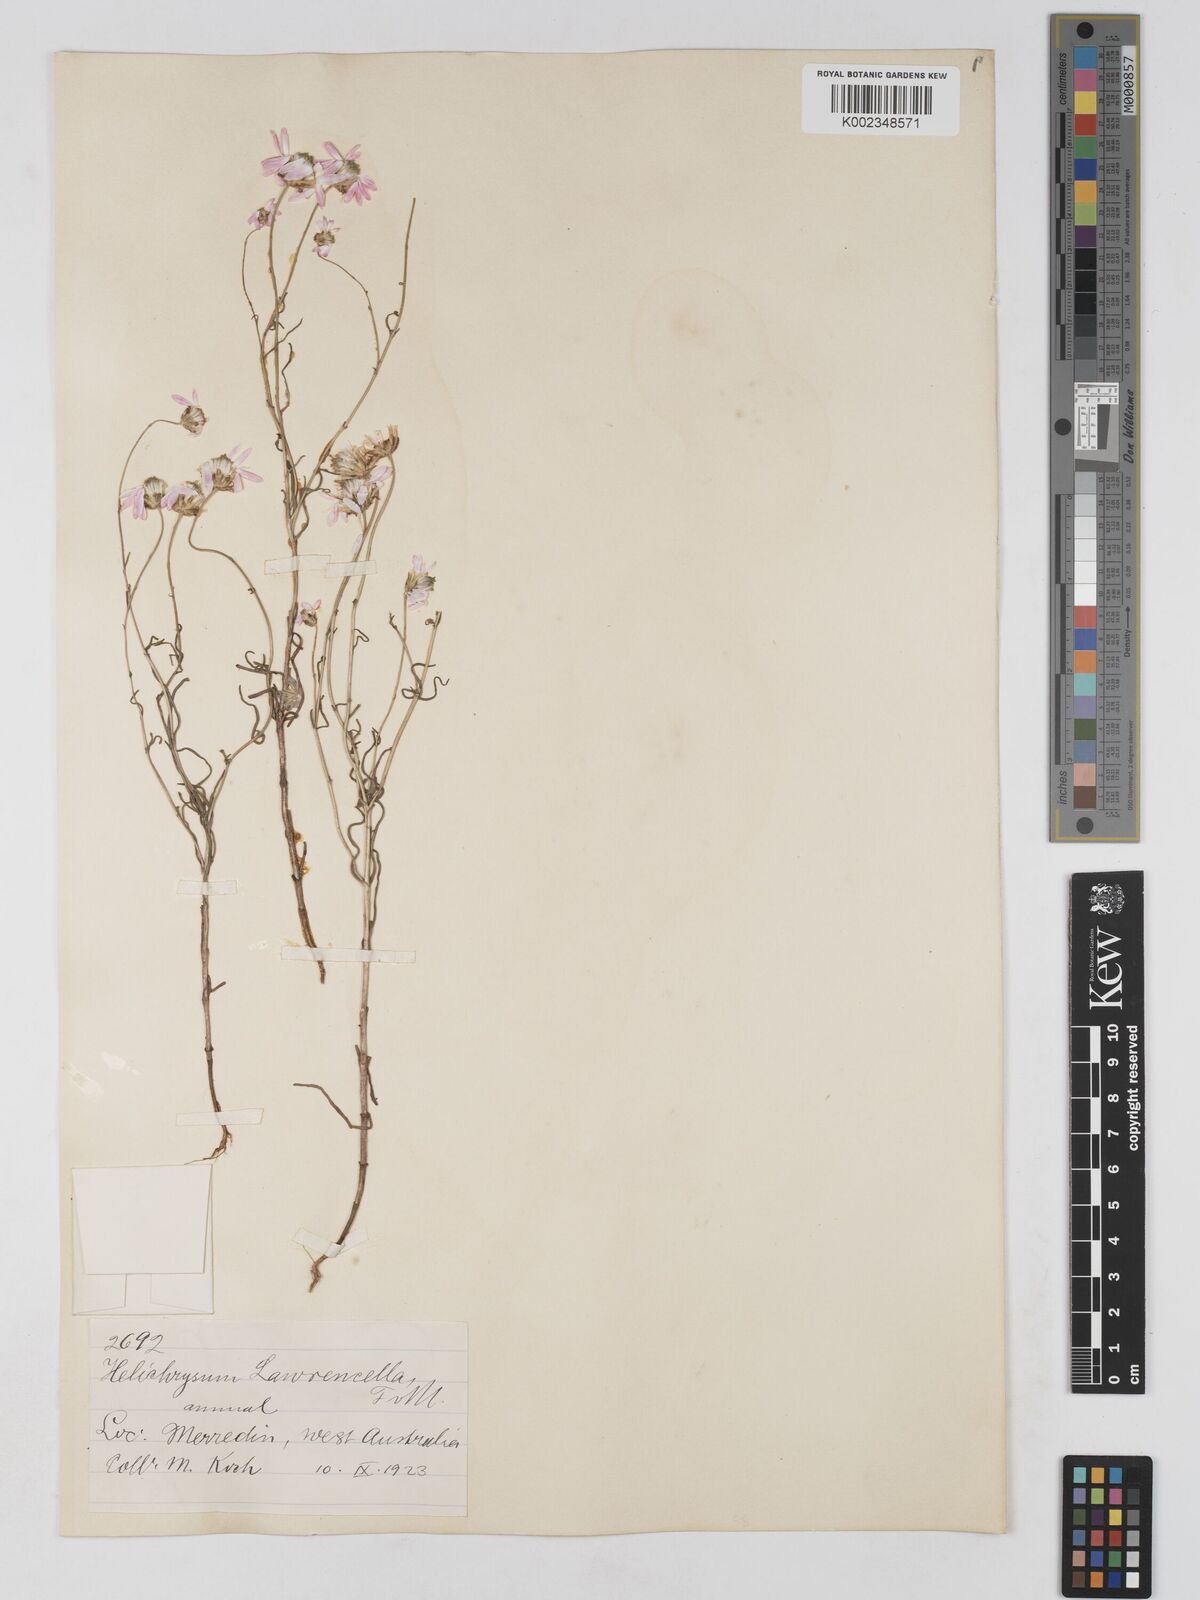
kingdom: Plantae
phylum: Tracheophyta
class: Magnoliopsida
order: Asterales
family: Asteraceae
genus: Lawrencella
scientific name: Lawrencella rosea
